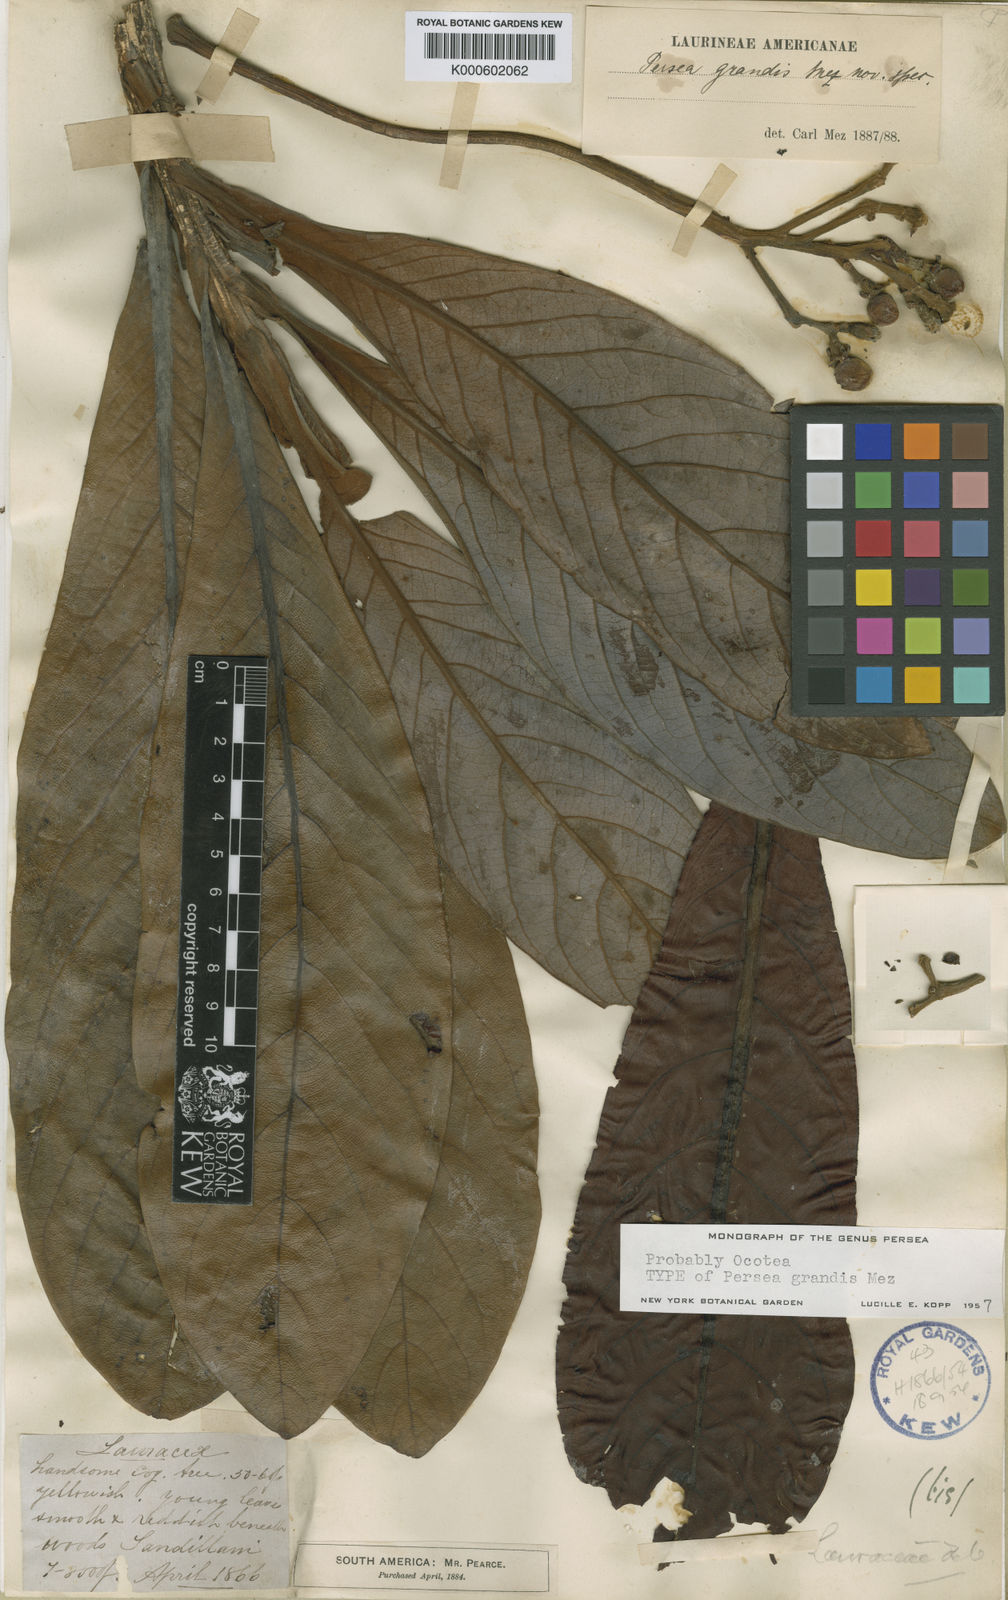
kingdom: Plantae
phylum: Tracheophyta
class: Magnoliopsida
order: Laurales
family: Lauraceae
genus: Nectandra
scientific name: Nectandra villosa
